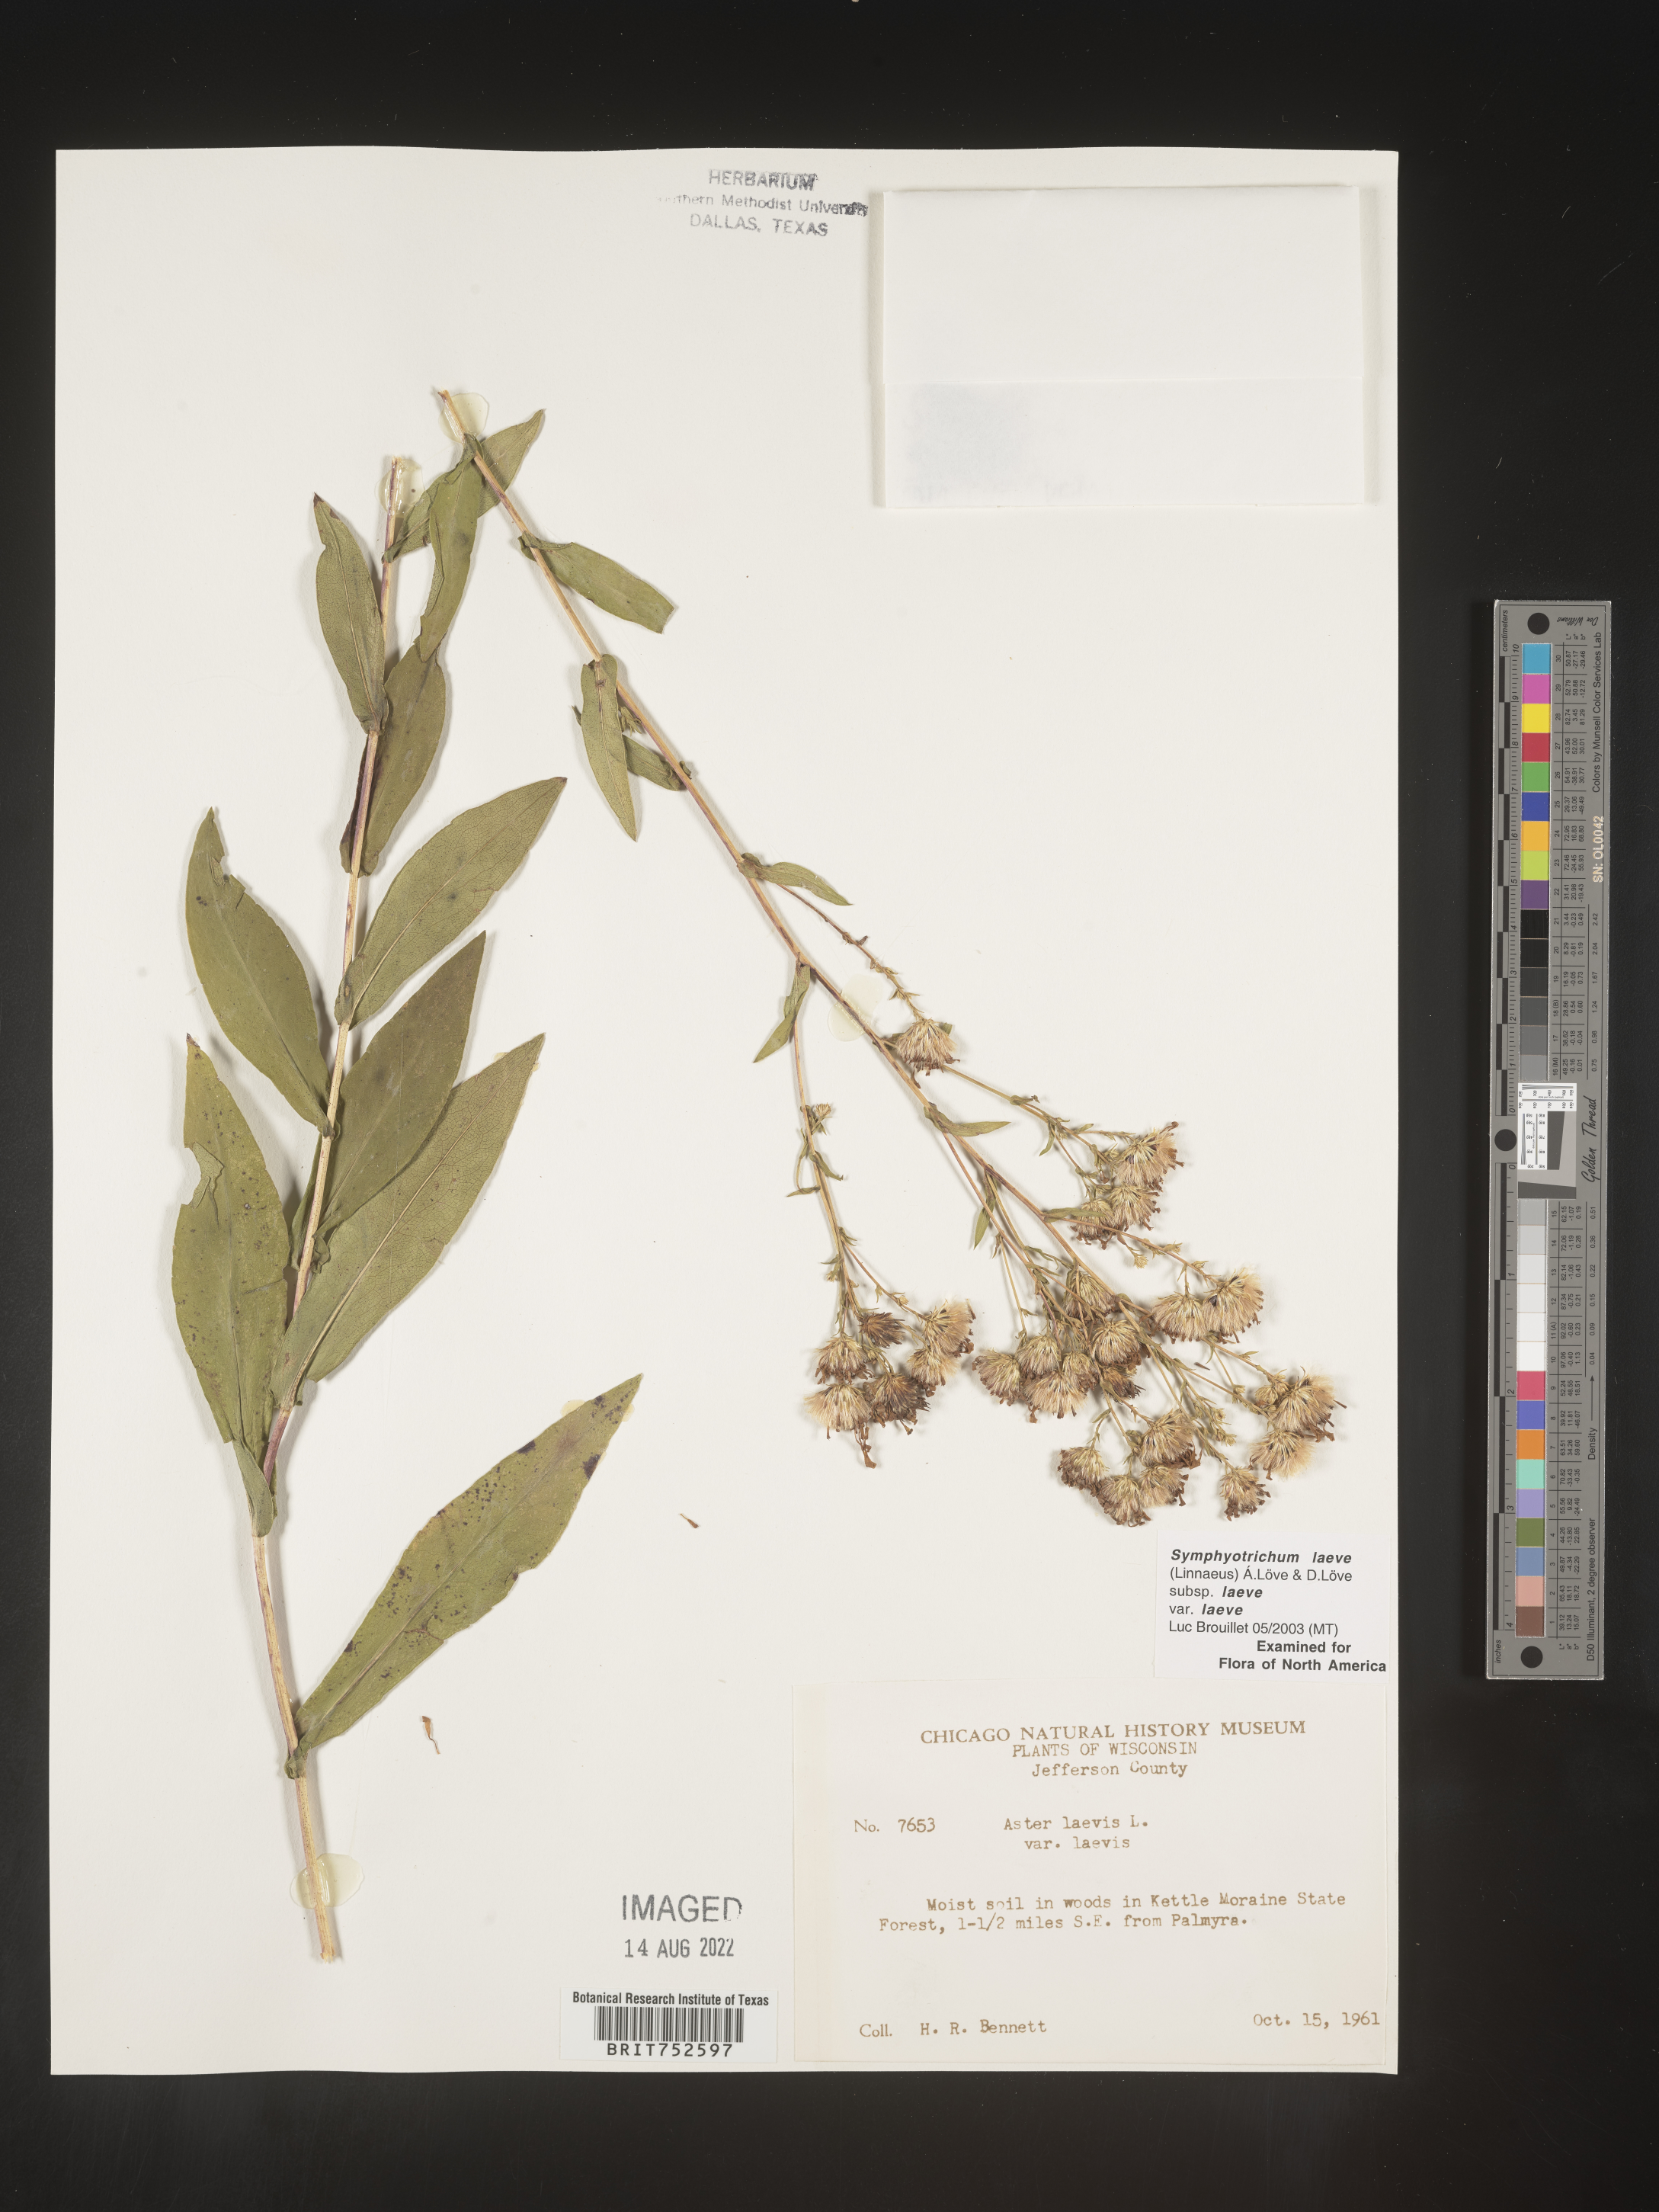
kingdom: Plantae
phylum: Tracheophyta
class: Magnoliopsida
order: Asterales
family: Asteraceae
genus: Symphyotrichum
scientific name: Symphyotrichum laeve
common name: Glaucous aster
